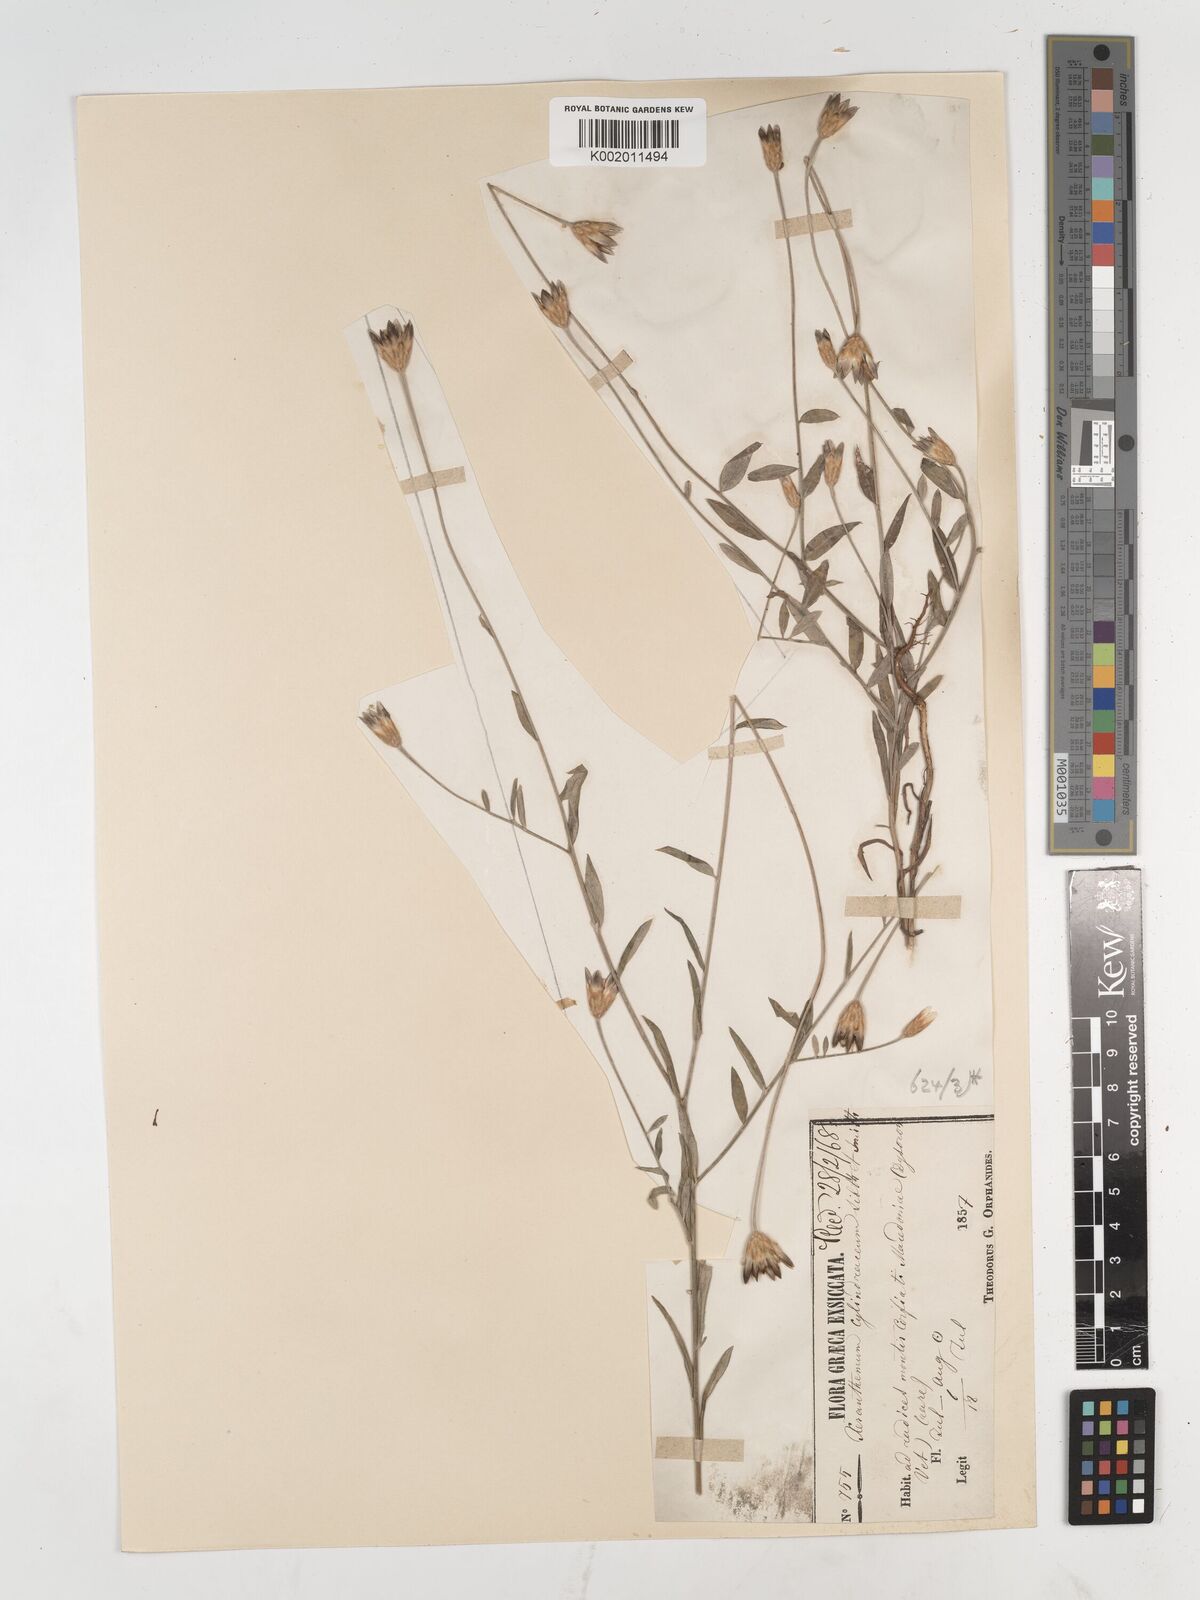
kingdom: Plantae
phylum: Tracheophyta
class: Magnoliopsida
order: Asterales
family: Asteraceae
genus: Xeranthemum
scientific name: Xeranthemum
